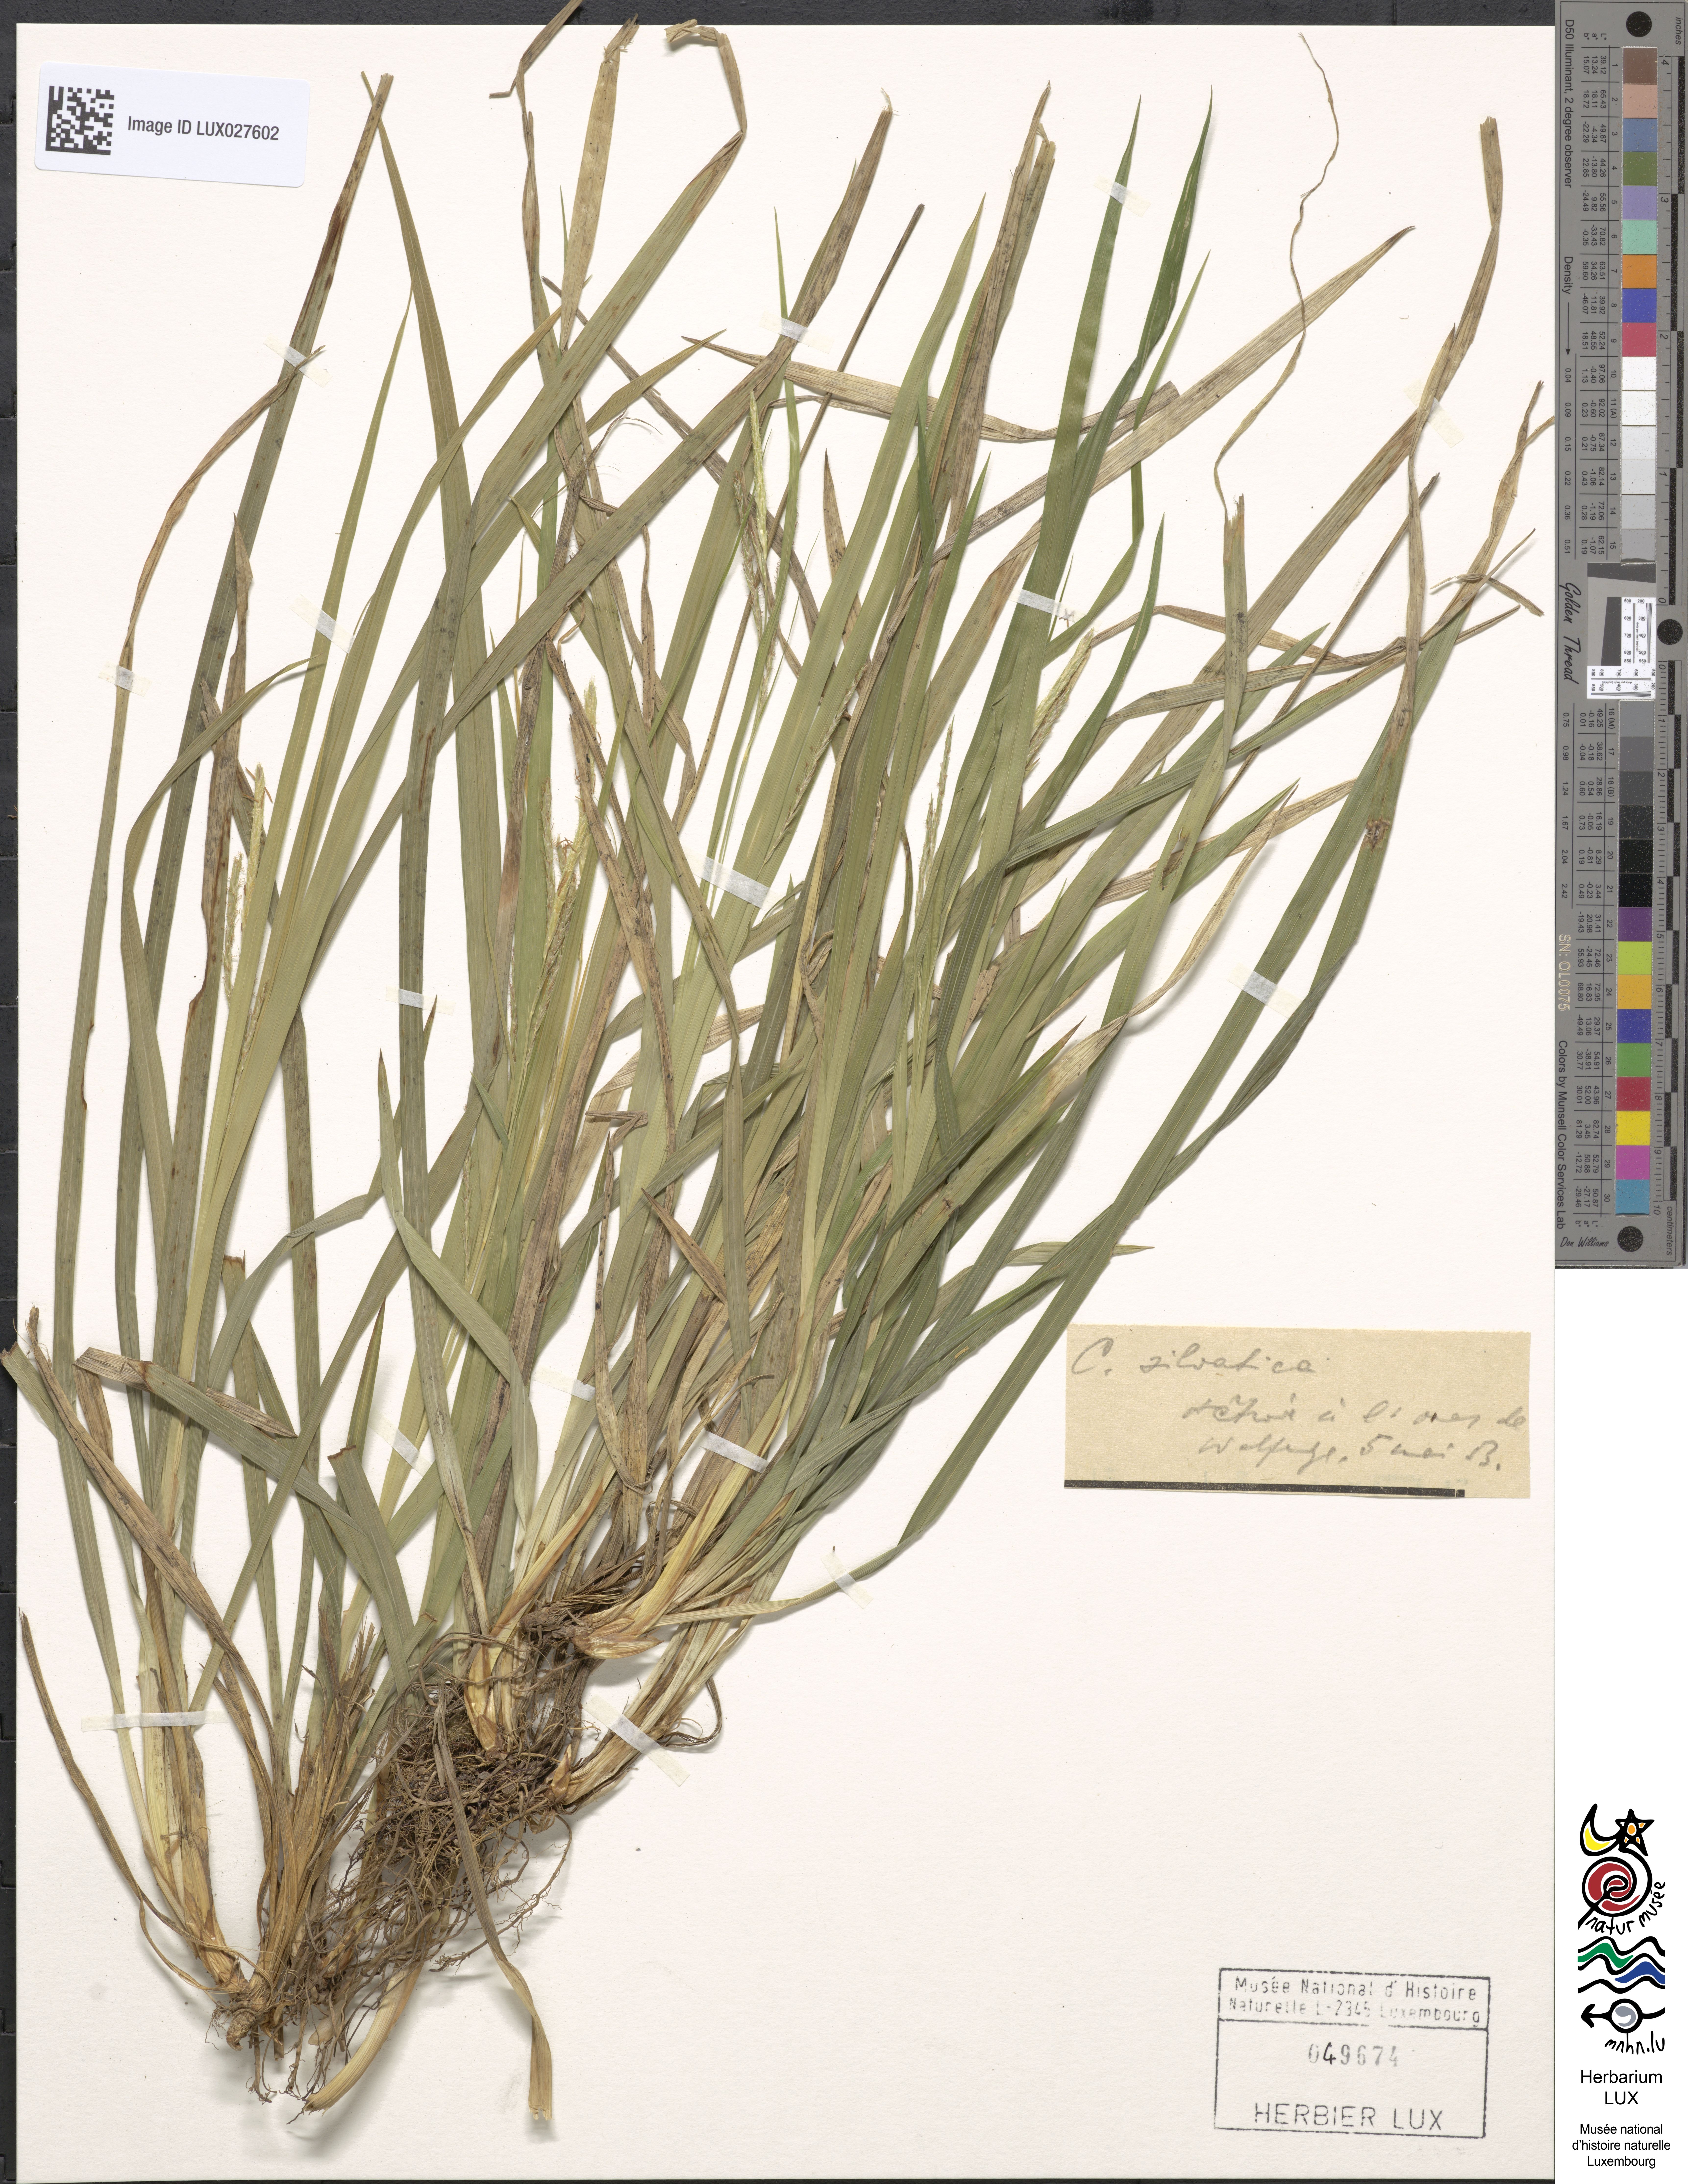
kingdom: Plantae
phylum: Tracheophyta
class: Liliopsida
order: Poales
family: Cyperaceae
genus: Carex
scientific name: Carex sylvatica
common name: Wood-sedge
